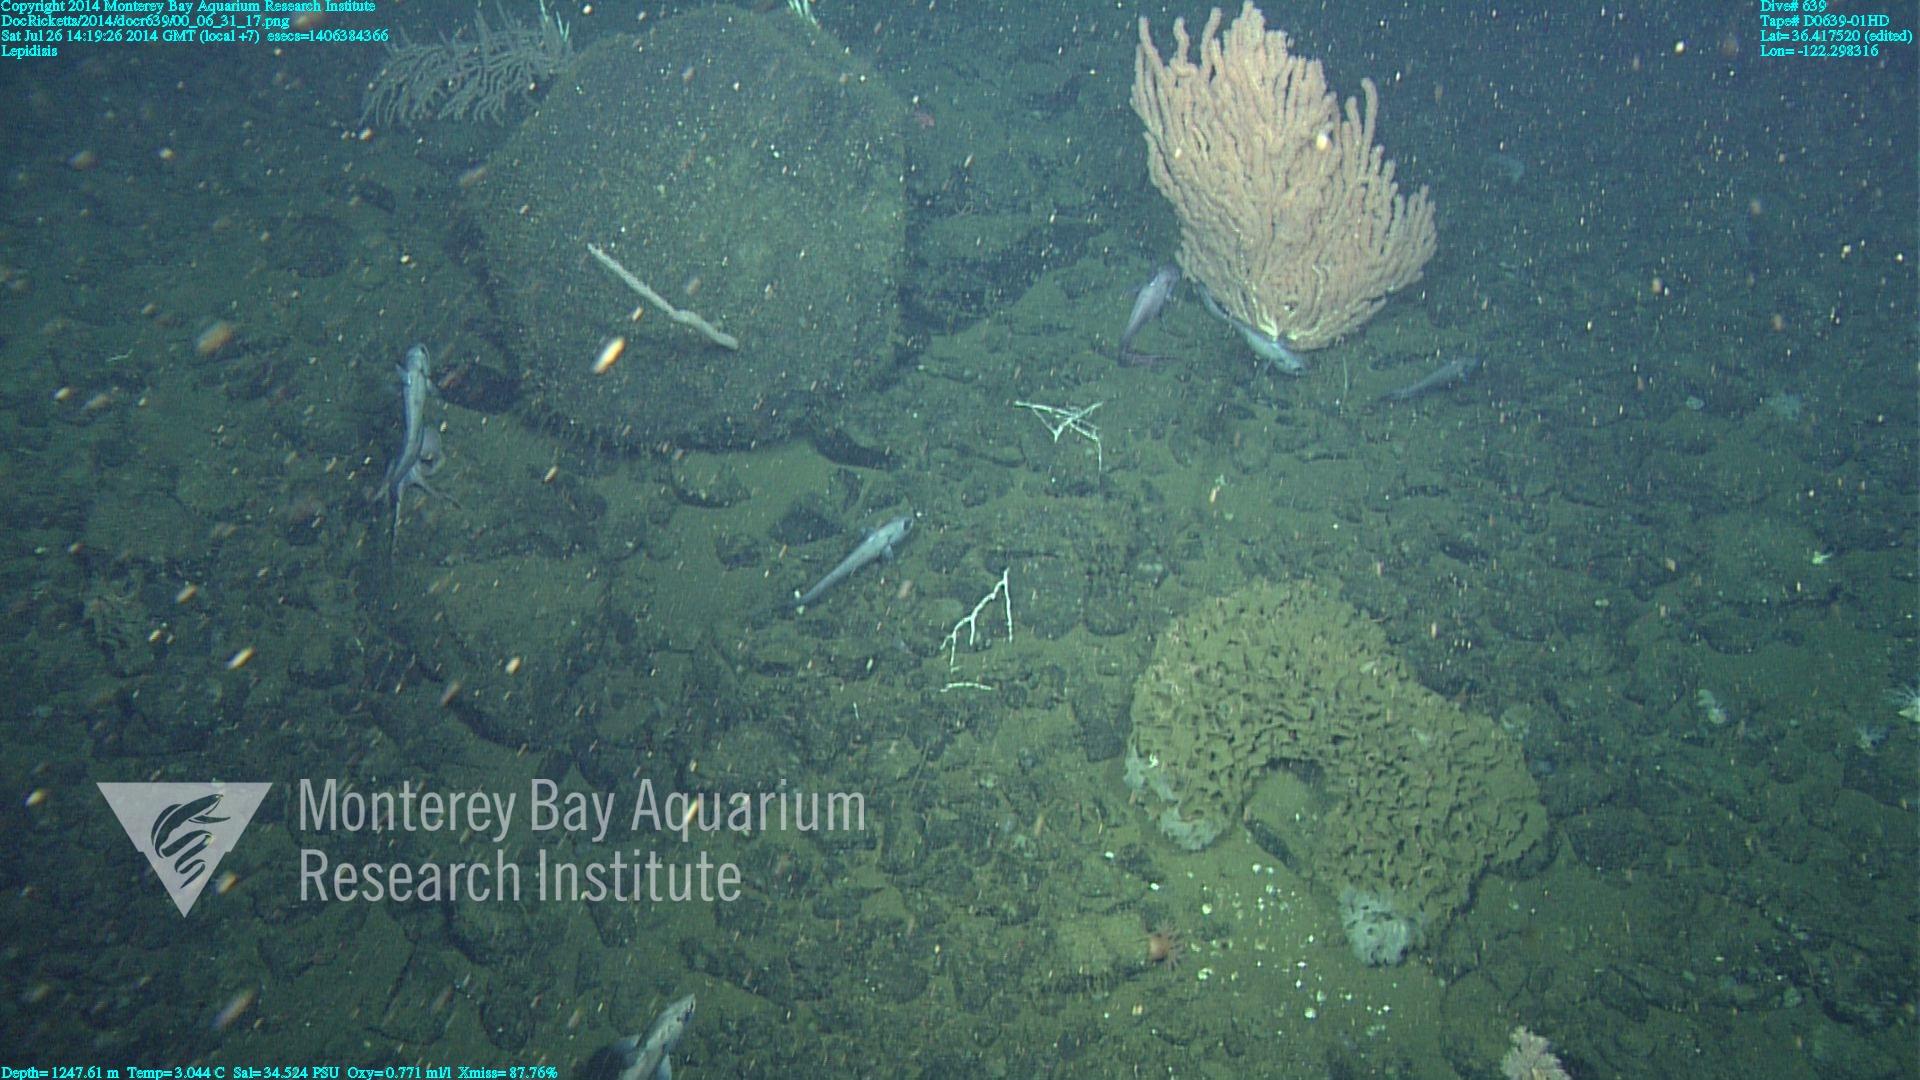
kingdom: Animalia
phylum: Cnidaria
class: Anthozoa
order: Scleralcyonacea
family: Keratoisididae
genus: Lepidisis
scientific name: Lepidisis
